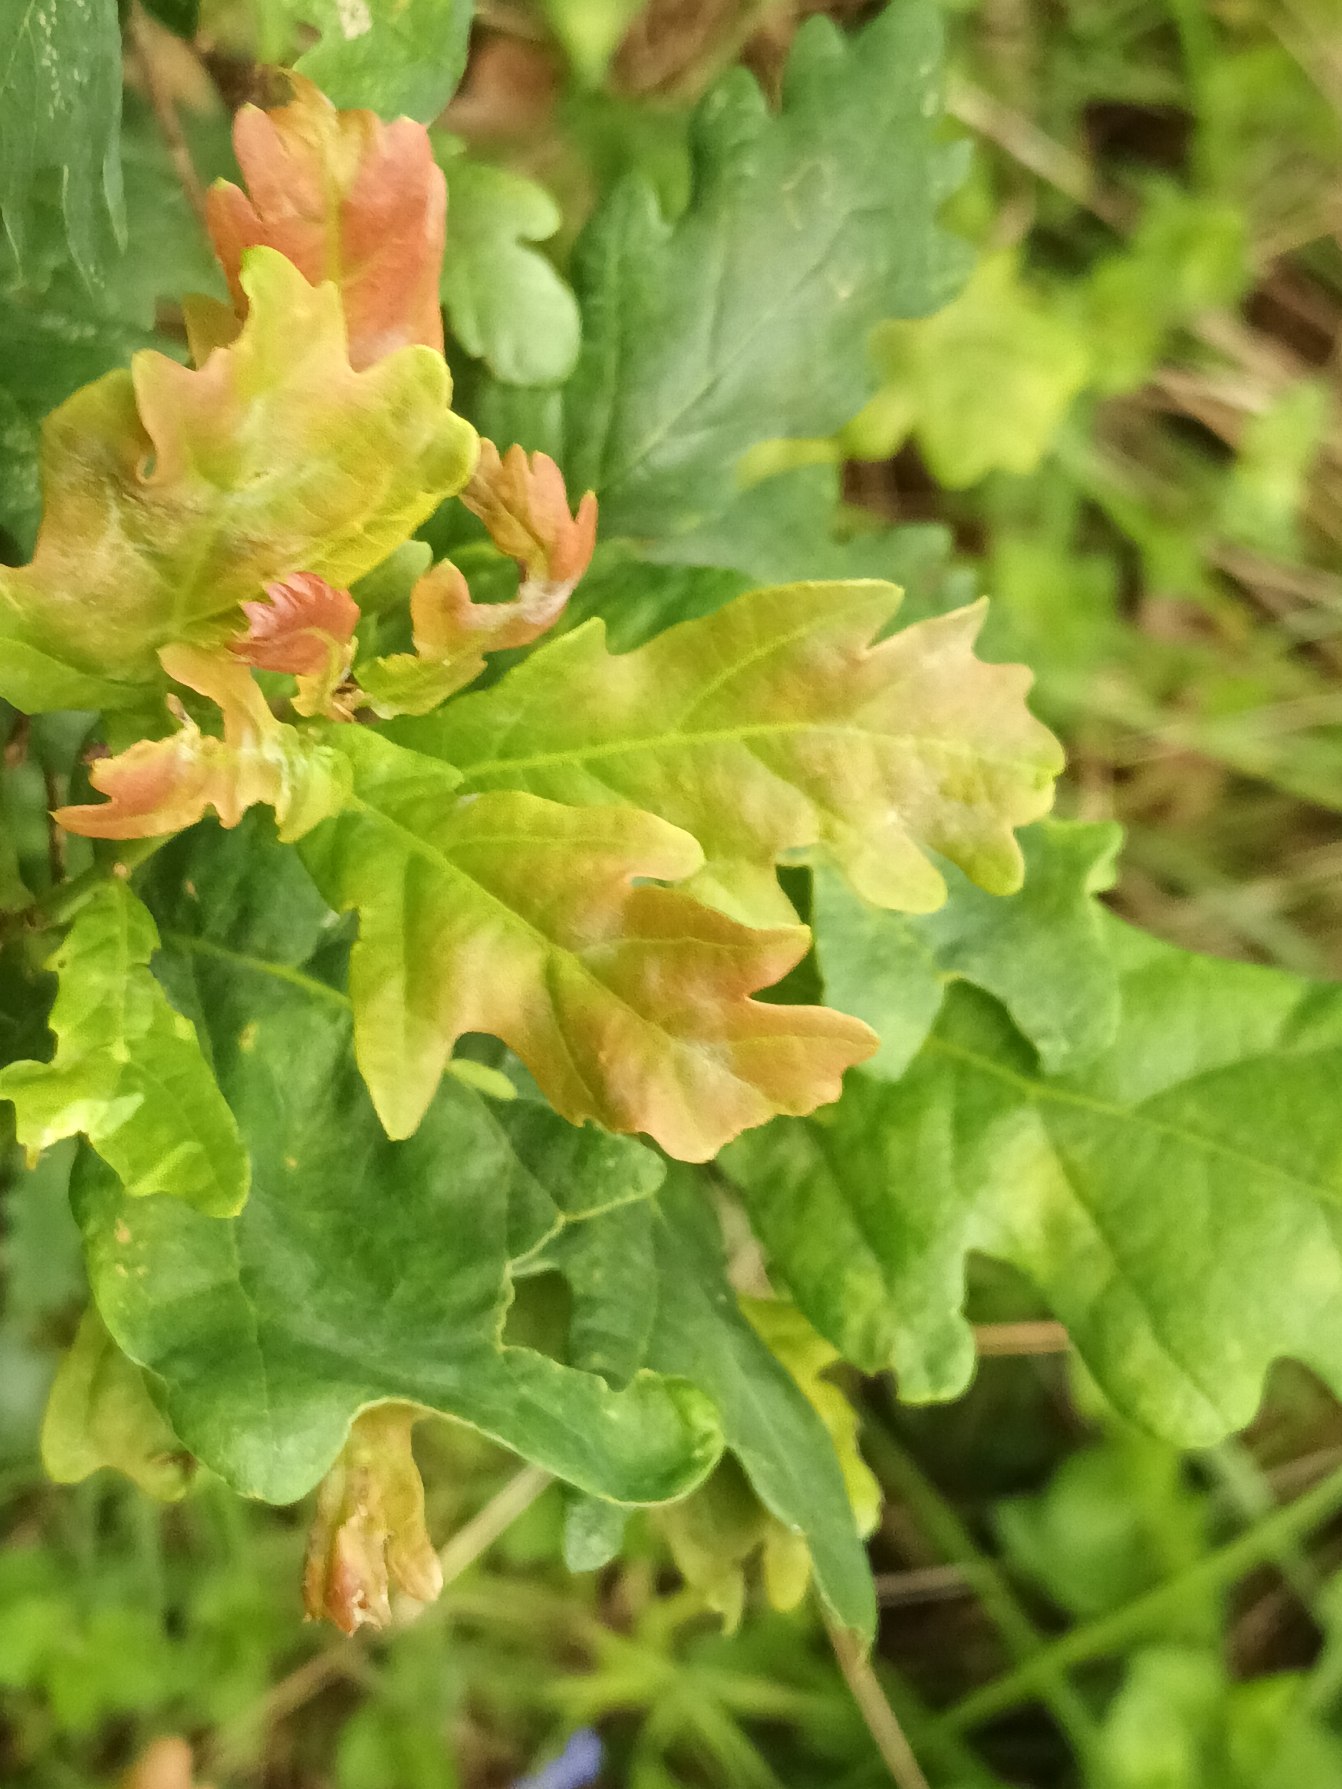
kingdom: Plantae
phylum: Tracheophyta
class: Magnoliopsida
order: Fagales
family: Fagaceae
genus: Quercus
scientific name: Quercus robur
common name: Stilk-eg/almindelig eg
